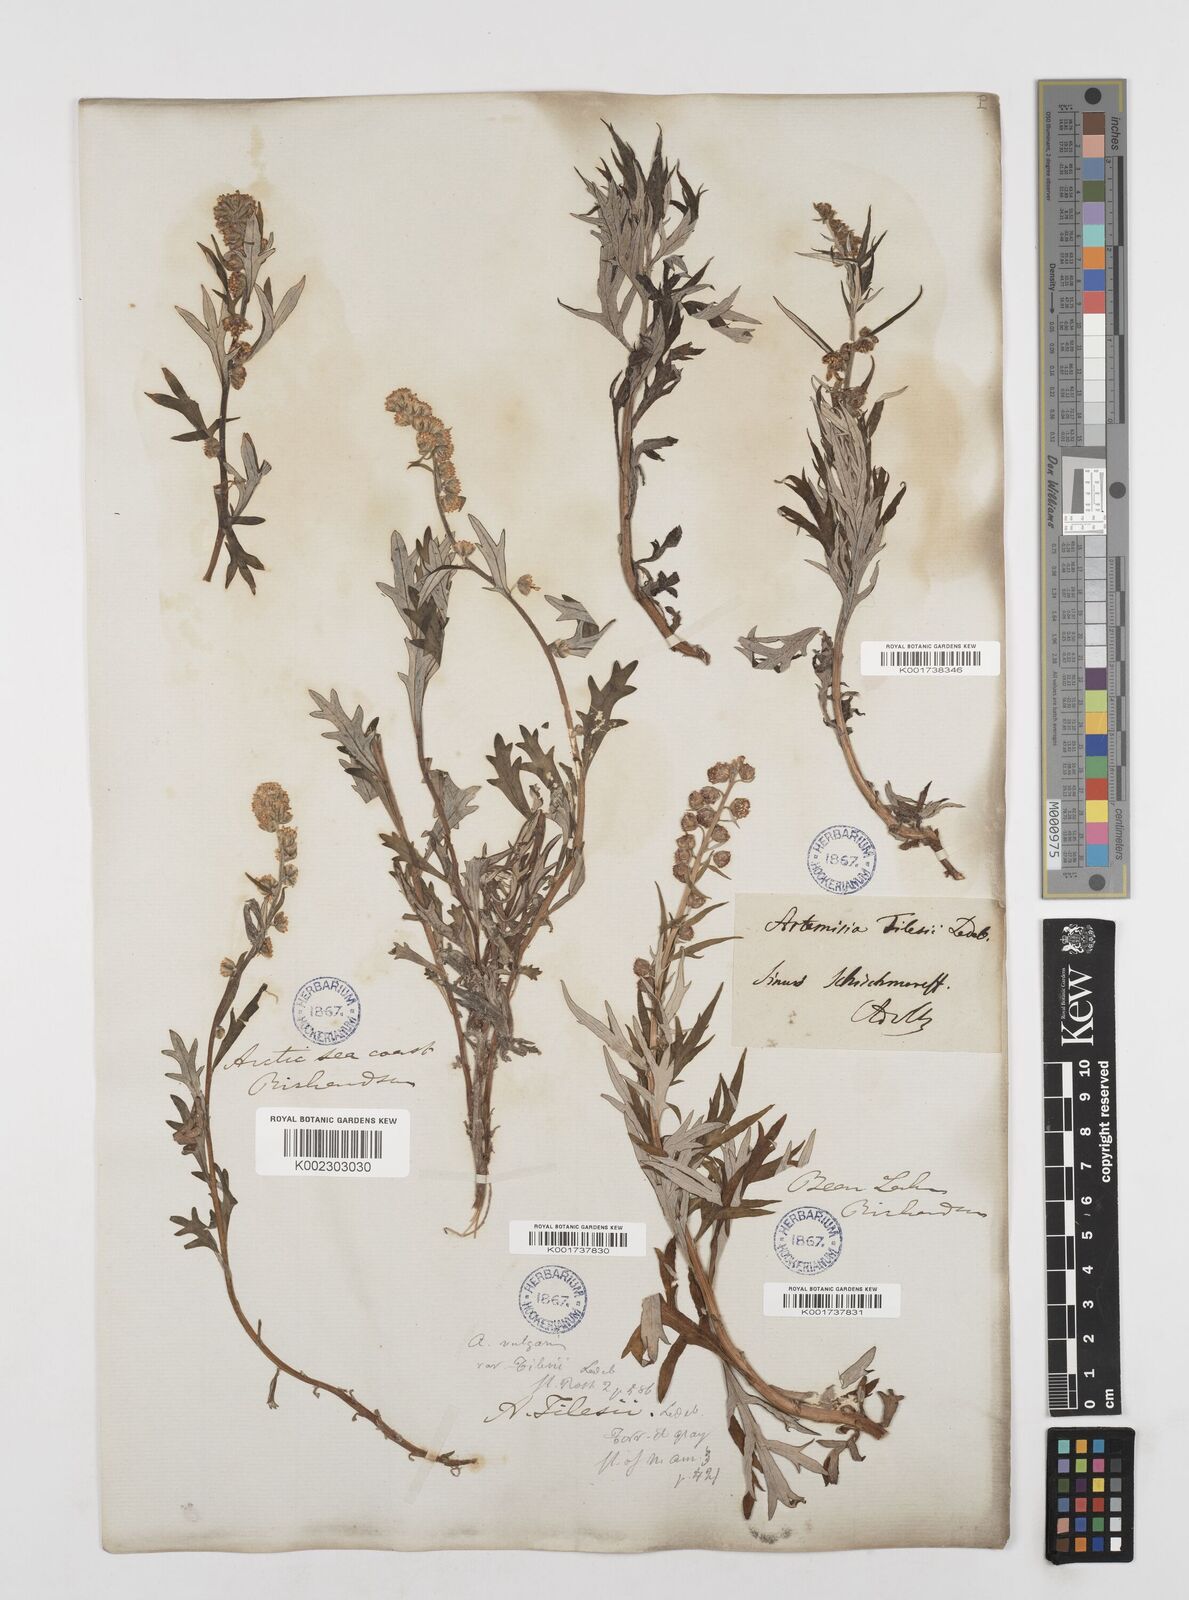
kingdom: Plantae
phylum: Tracheophyta
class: Magnoliopsida
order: Asterales
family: Asteraceae
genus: Artemisia
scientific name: Artemisia
